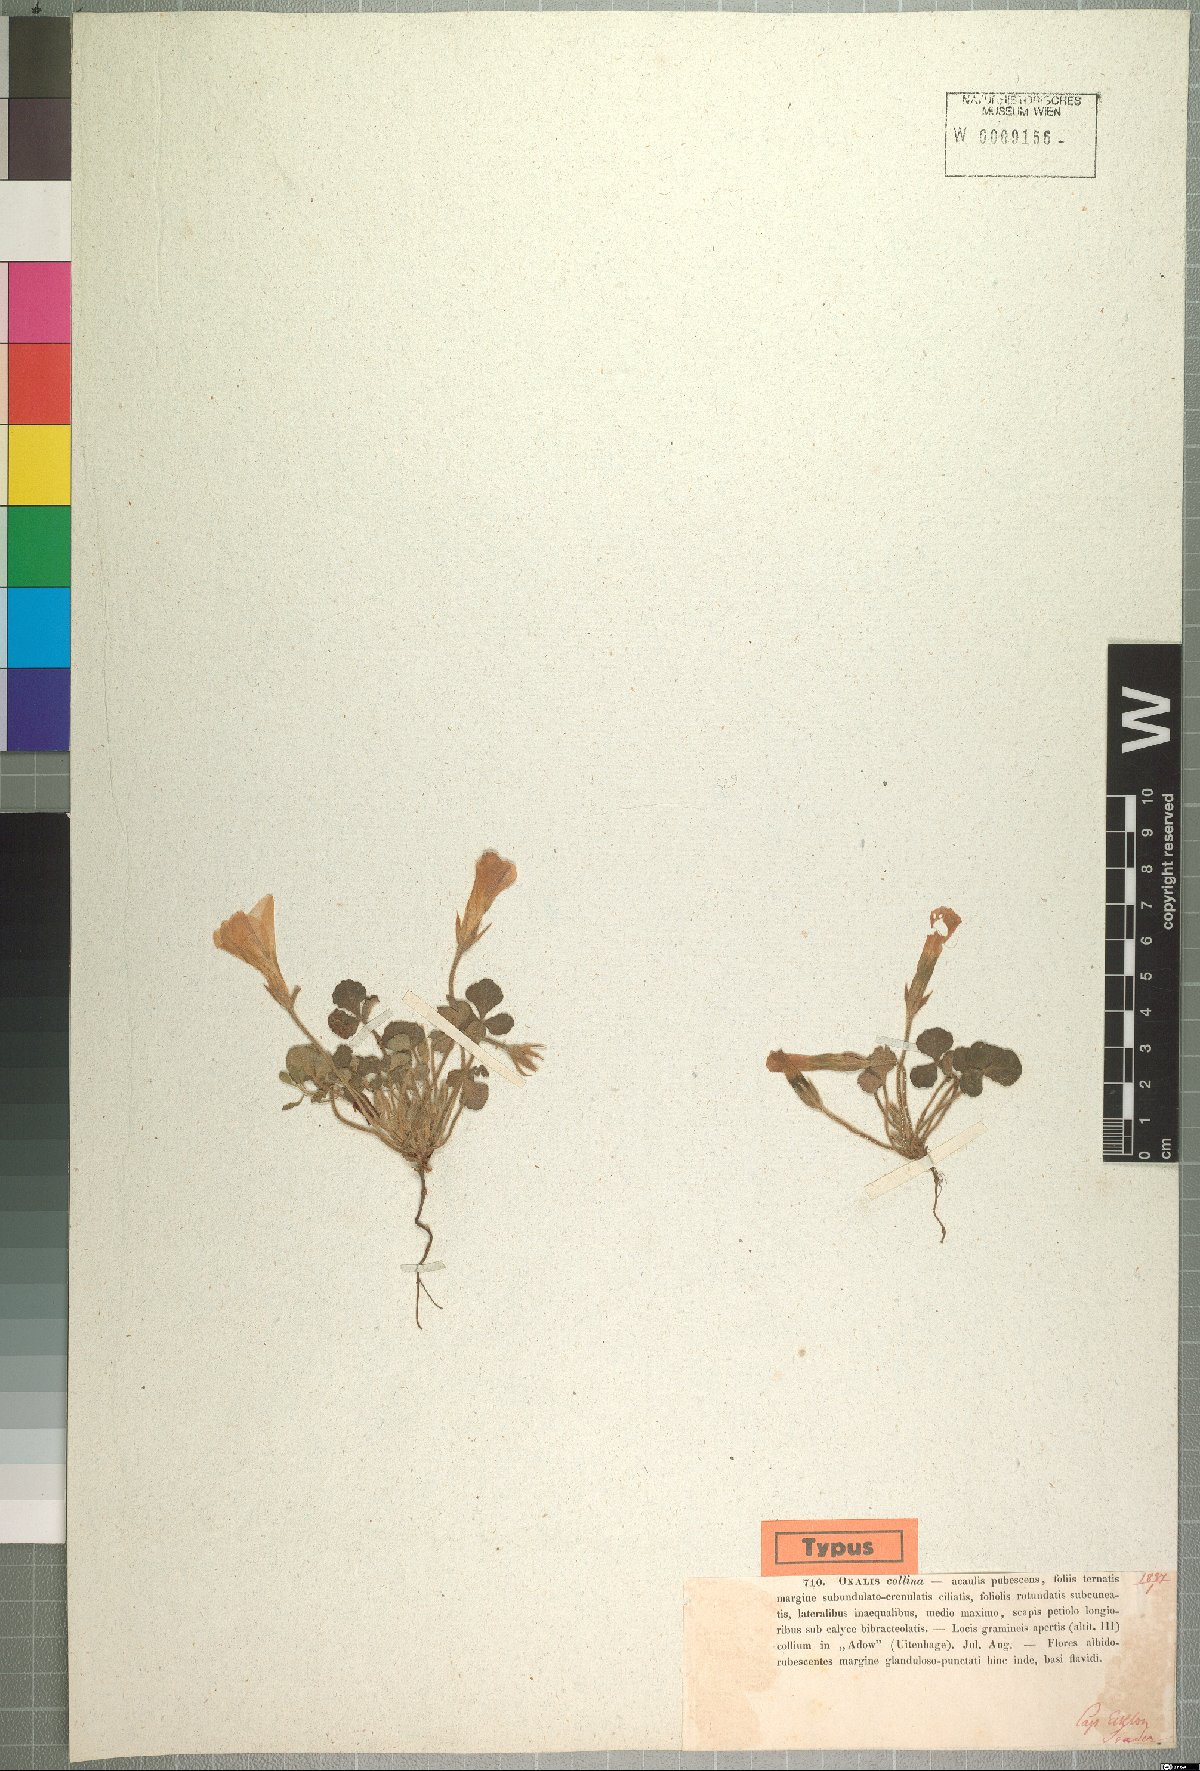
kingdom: Plantae
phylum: Tracheophyta
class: Magnoliopsida
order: Oxalidales
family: Oxalidaceae
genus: Oxalis
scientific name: Oxalis algoensis
